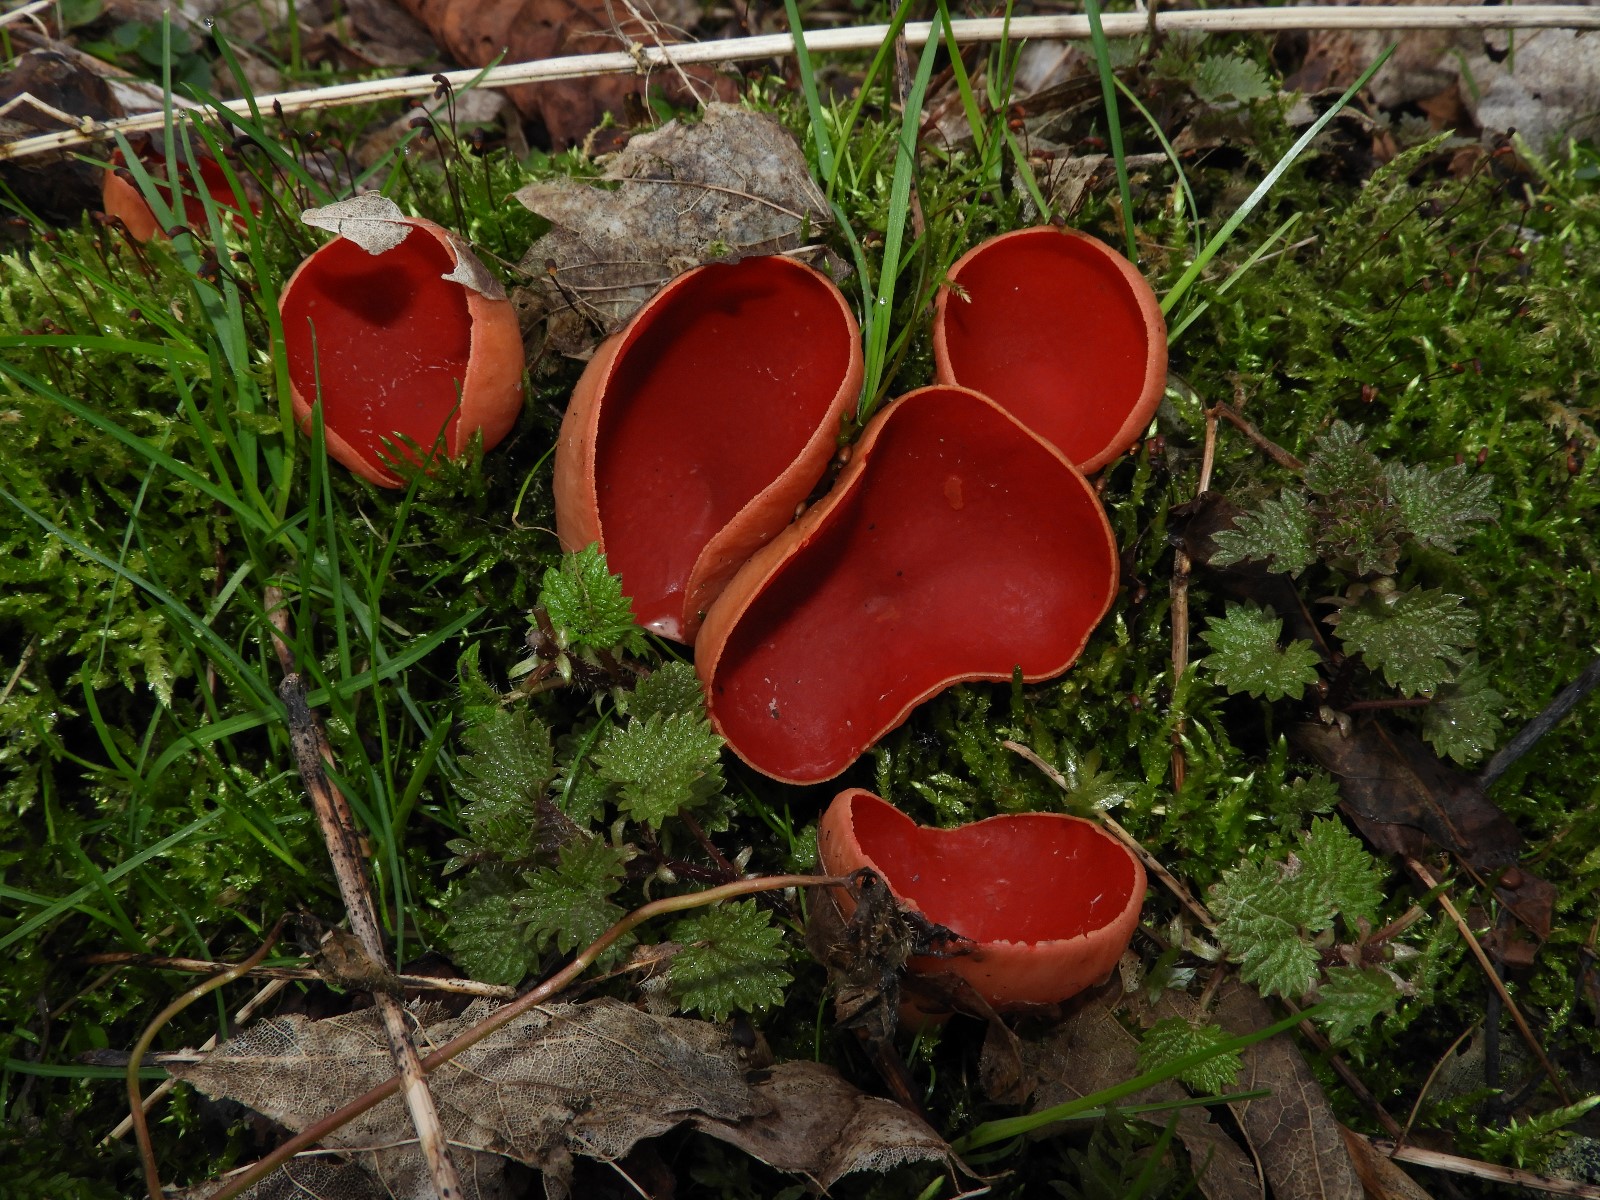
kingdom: Fungi
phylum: Ascomycota
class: Pezizomycetes
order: Pezizales
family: Sarcoscyphaceae
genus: Sarcoscypha
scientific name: Sarcoscypha austriaca
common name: krølhåret pragtbæger
